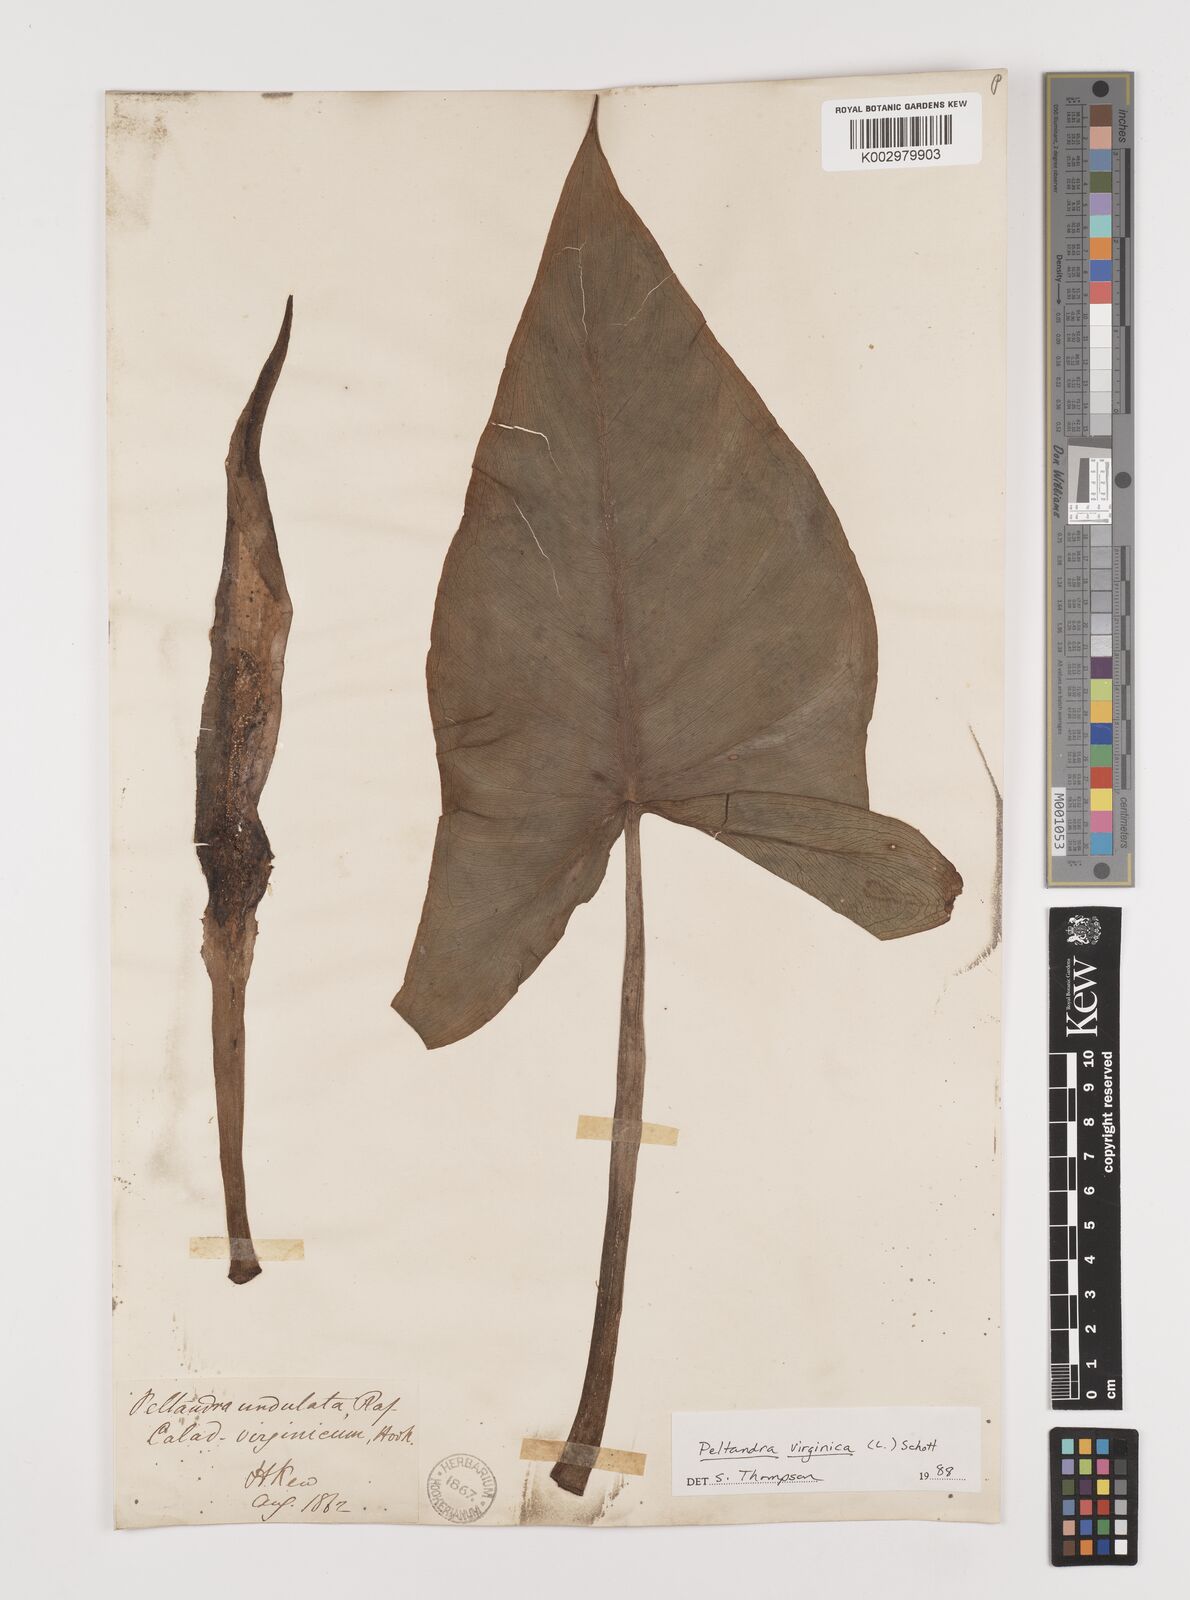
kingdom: Plantae
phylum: Tracheophyta
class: Liliopsida
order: Alismatales
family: Araceae
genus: Peltandra
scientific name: Peltandra virginica
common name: Arrow arum
